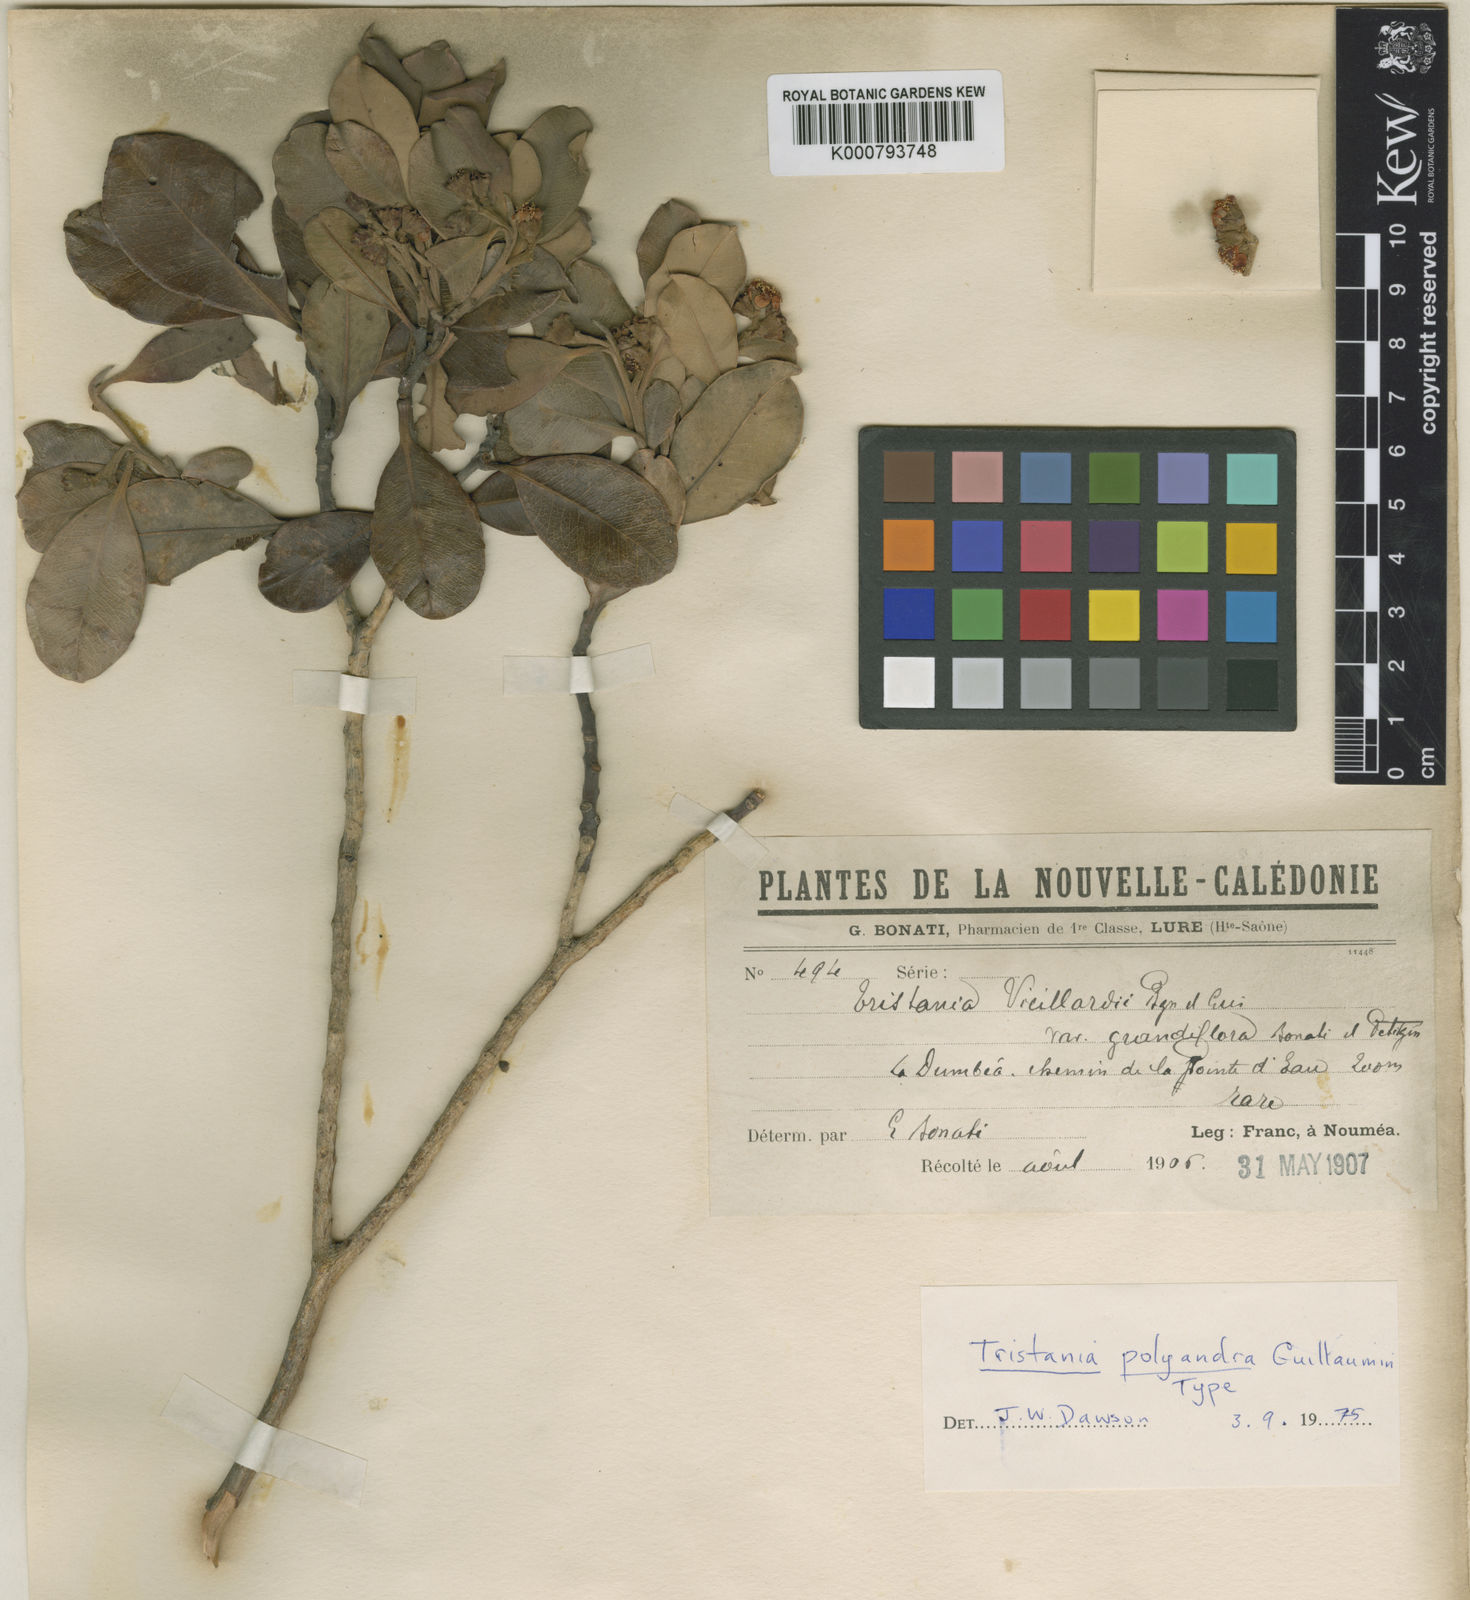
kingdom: Plantae
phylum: Tracheophyta
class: Magnoliopsida
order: Myrtales
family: Myrtaceae
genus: Tristaniopsis
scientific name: Tristaniopsis polyandra
